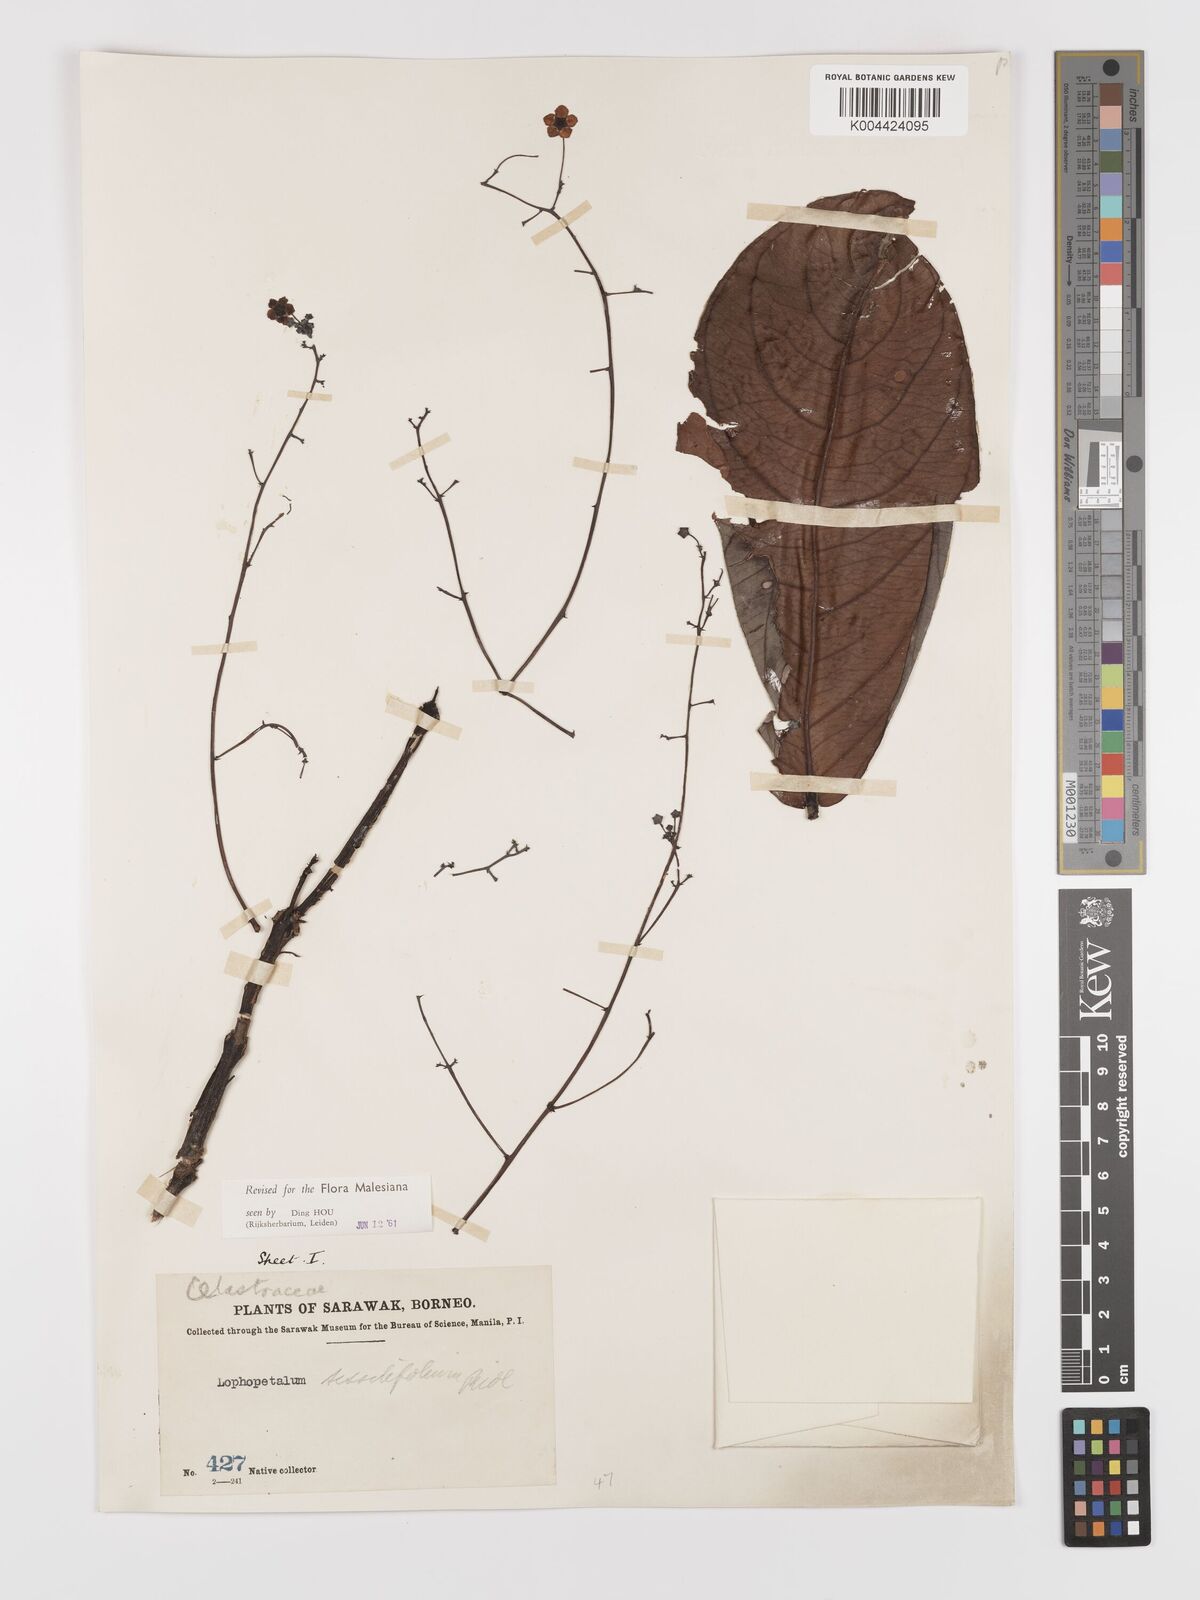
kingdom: Plantae
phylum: Tracheophyta
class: Magnoliopsida
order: Celastrales
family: Celastraceae
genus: Lophopetalum
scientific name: Lophopetalum sessilifolium
